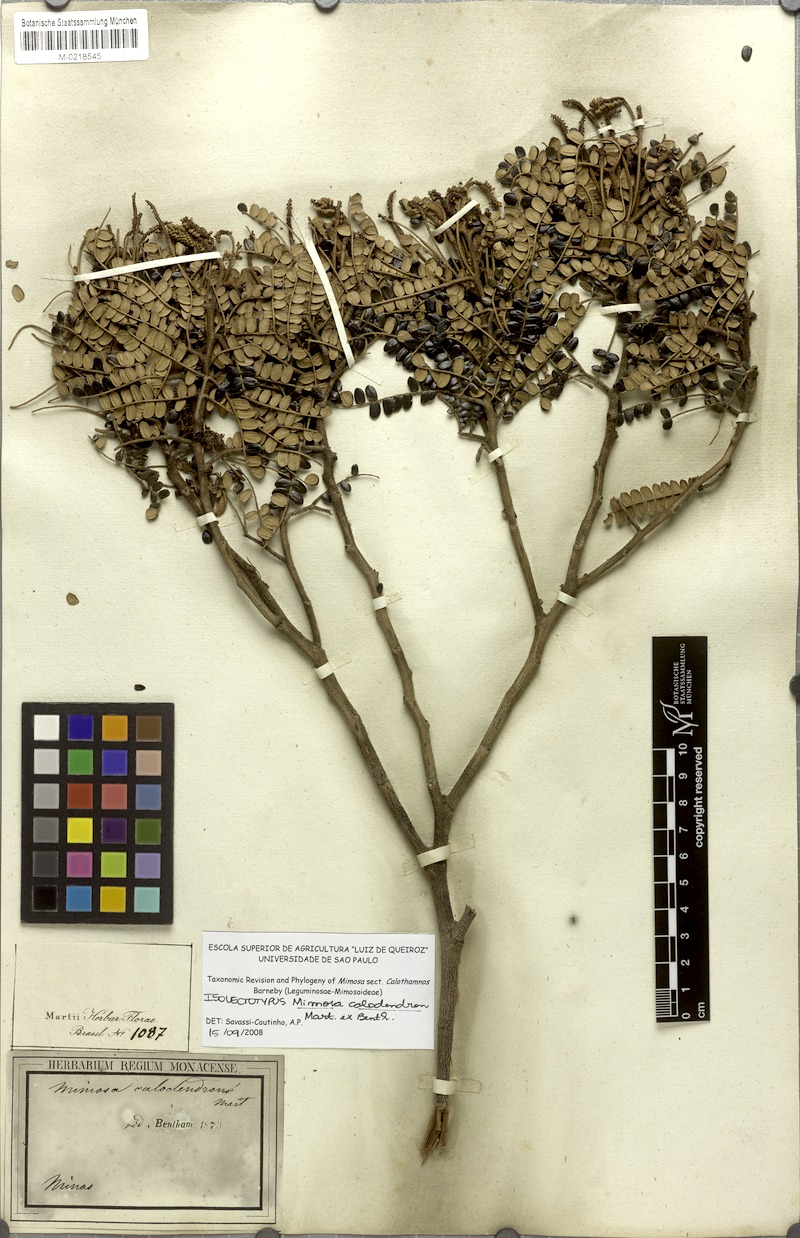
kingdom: Plantae
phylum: Tracheophyta
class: Magnoliopsida
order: Fabales
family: Fabaceae
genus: Mimosa
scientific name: Mimosa calodendron
